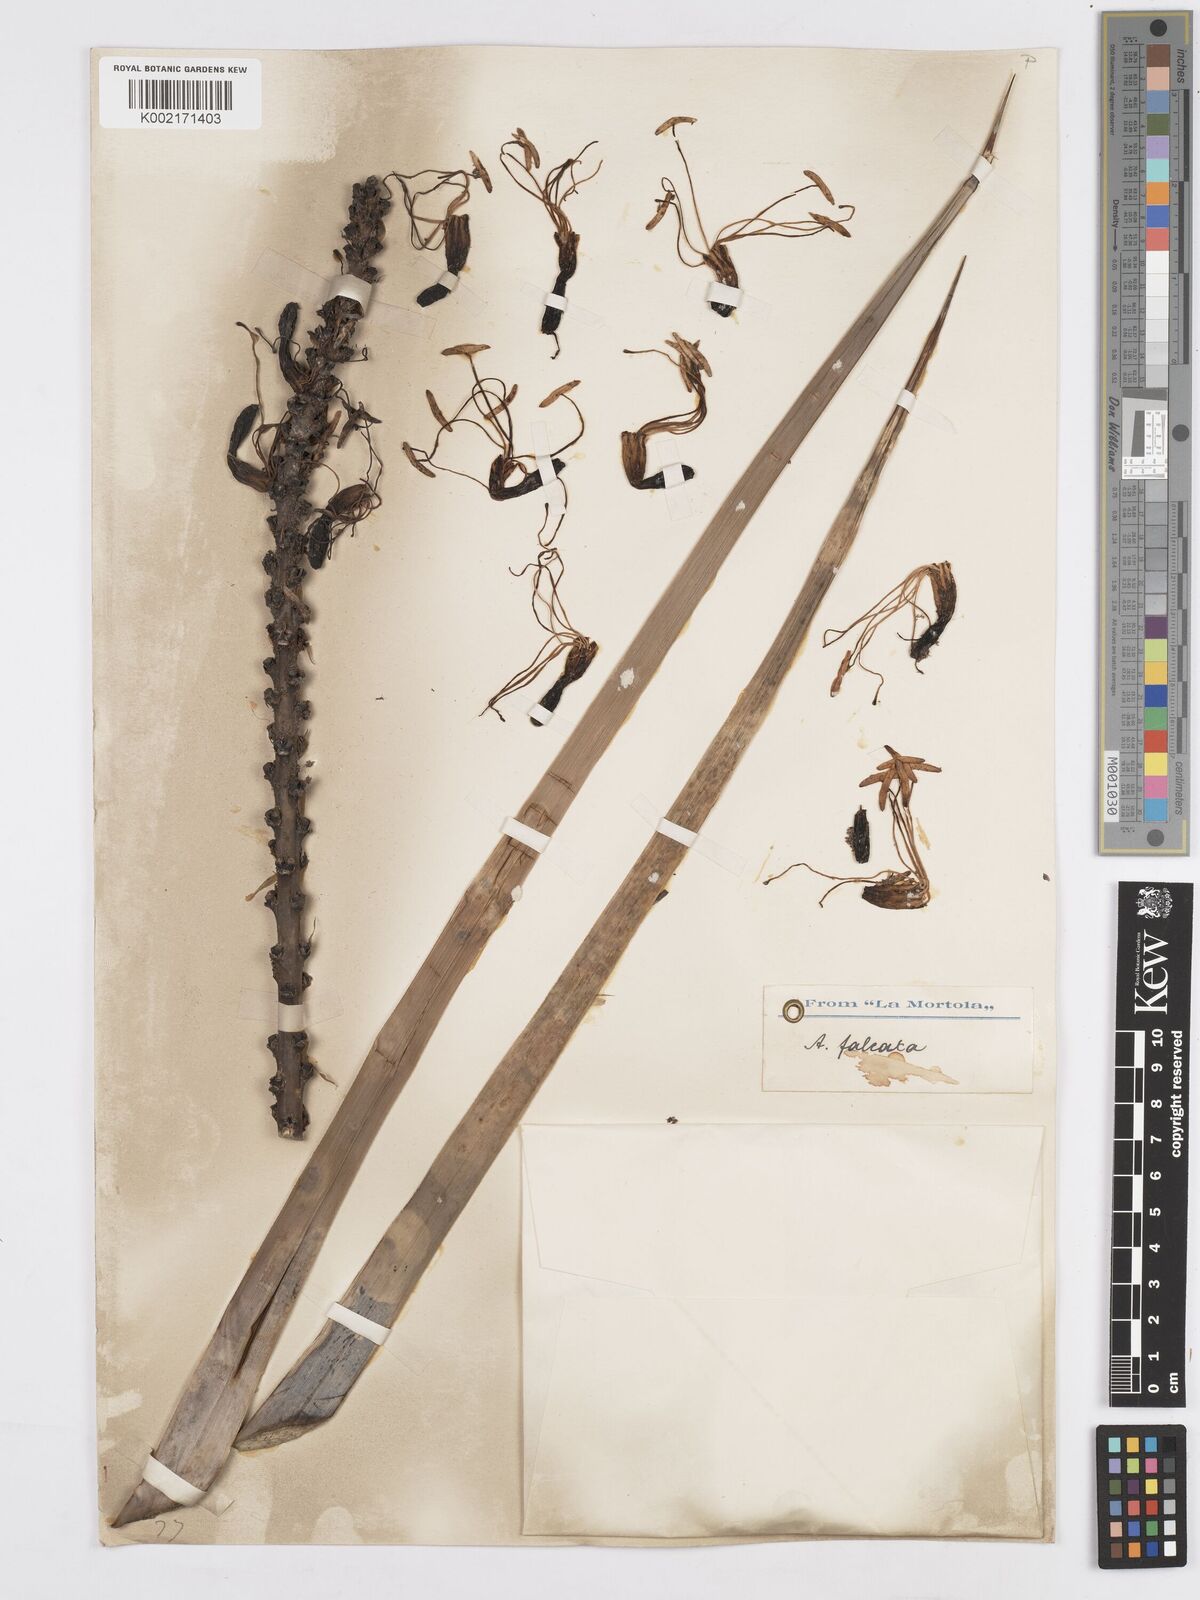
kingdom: Plantae
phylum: Tracheophyta
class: Liliopsida
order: Asparagales
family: Asparagaceae
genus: Agave
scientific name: Agave striata
